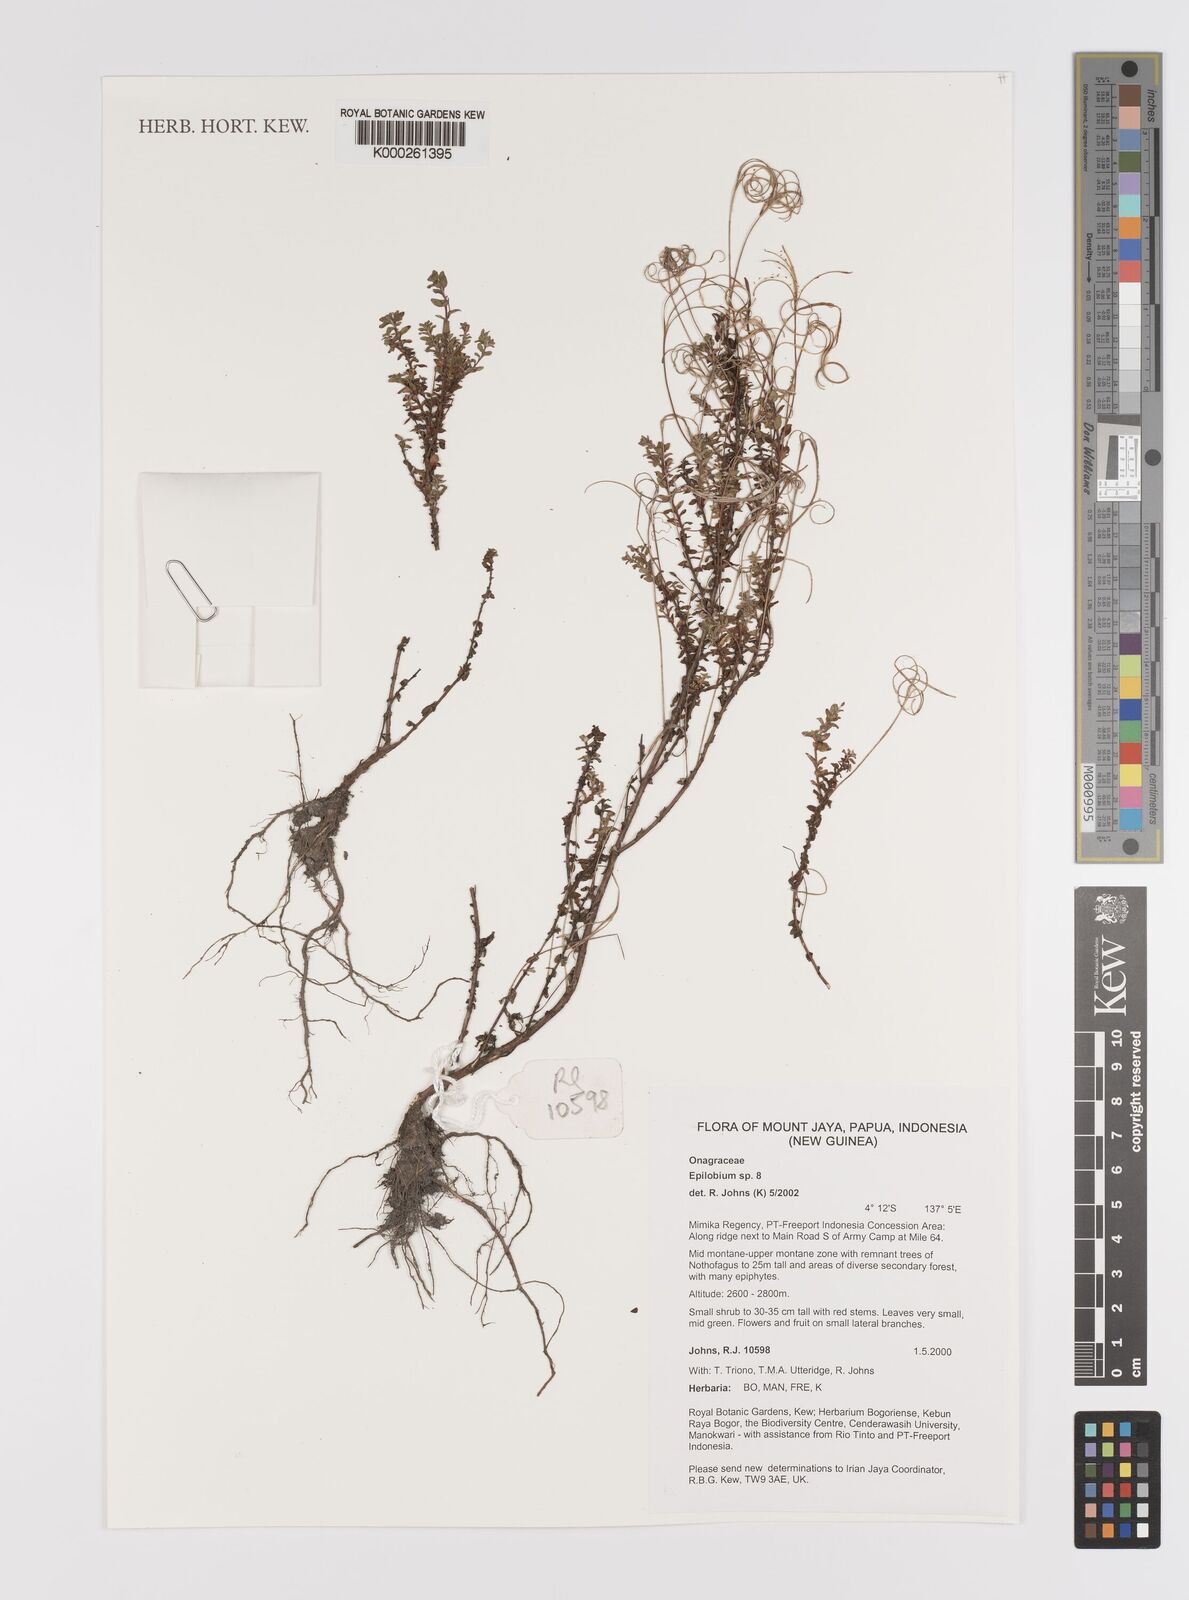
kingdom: Plantae
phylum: Tracheophyta
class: Magnoliopsida
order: Myrtales
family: Onagraceae
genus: Epilobium
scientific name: Epilobium
